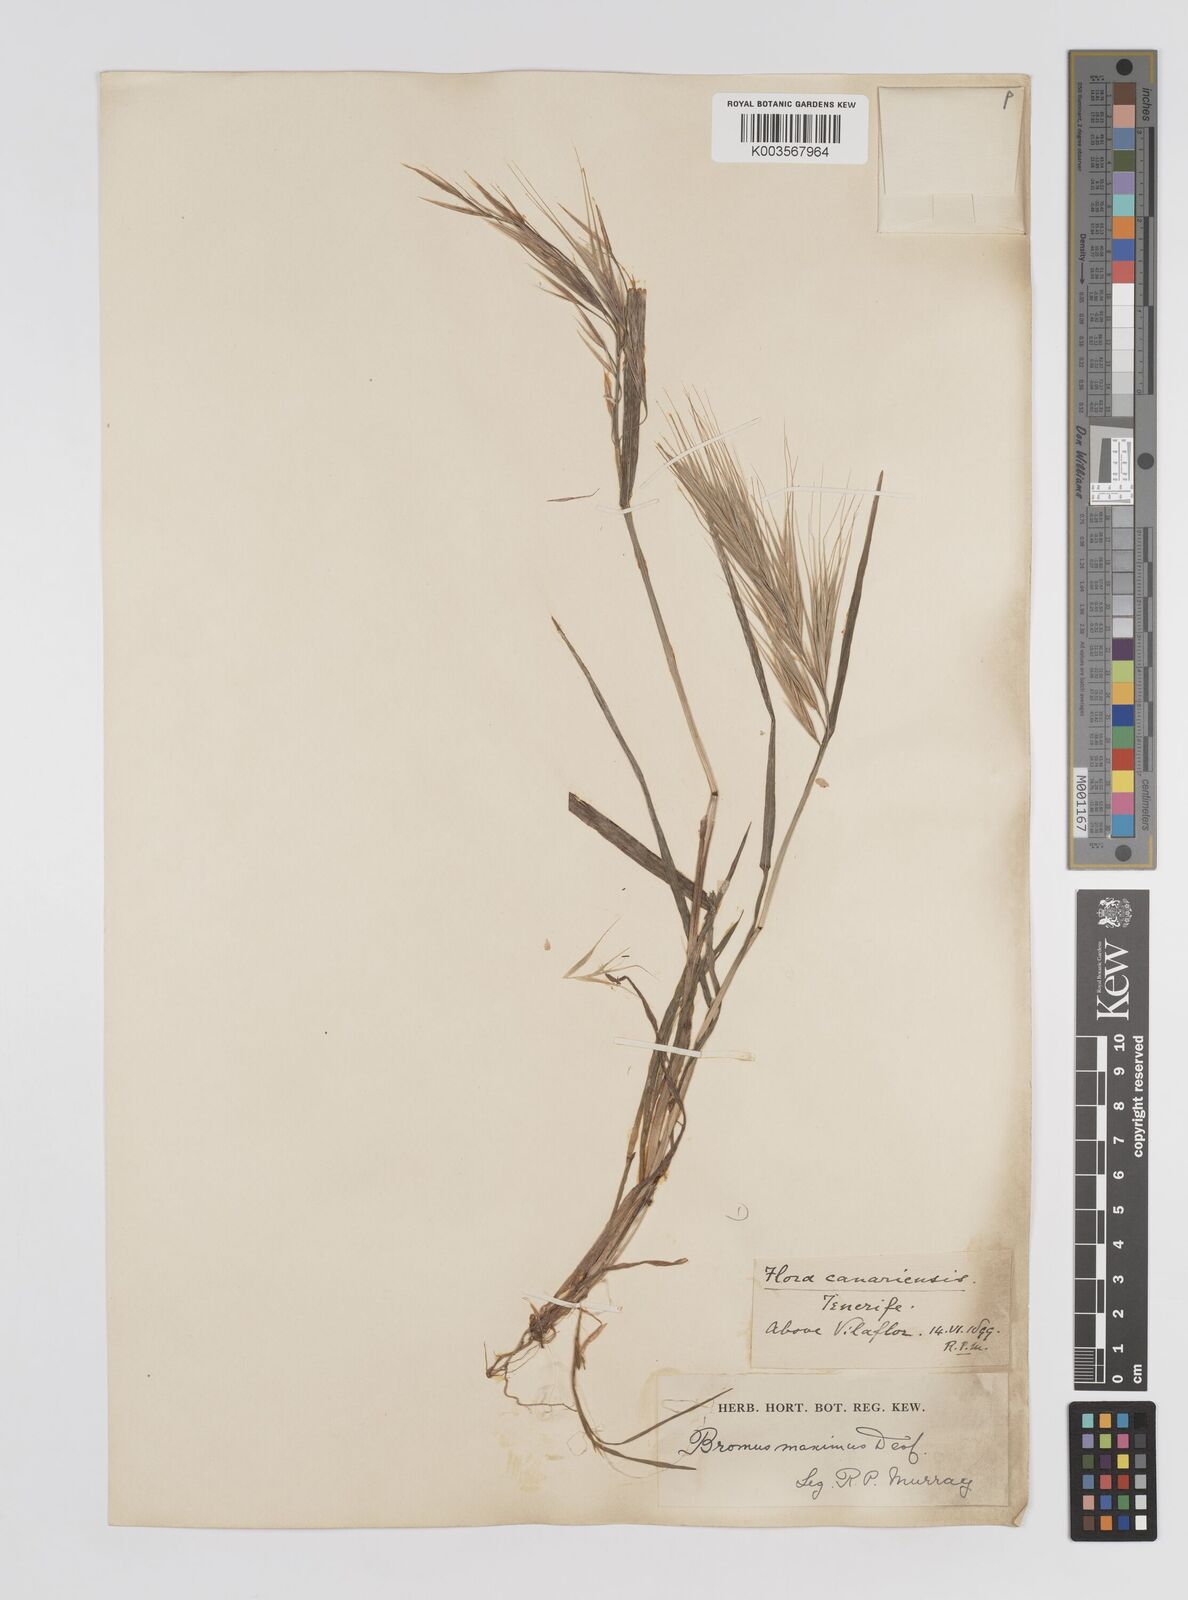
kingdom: Plantae
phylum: Tracheophyta
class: Liliopsida
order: Poales
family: Poaceae
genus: Bromus
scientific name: Bromus diandrus
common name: Ripgut brome
